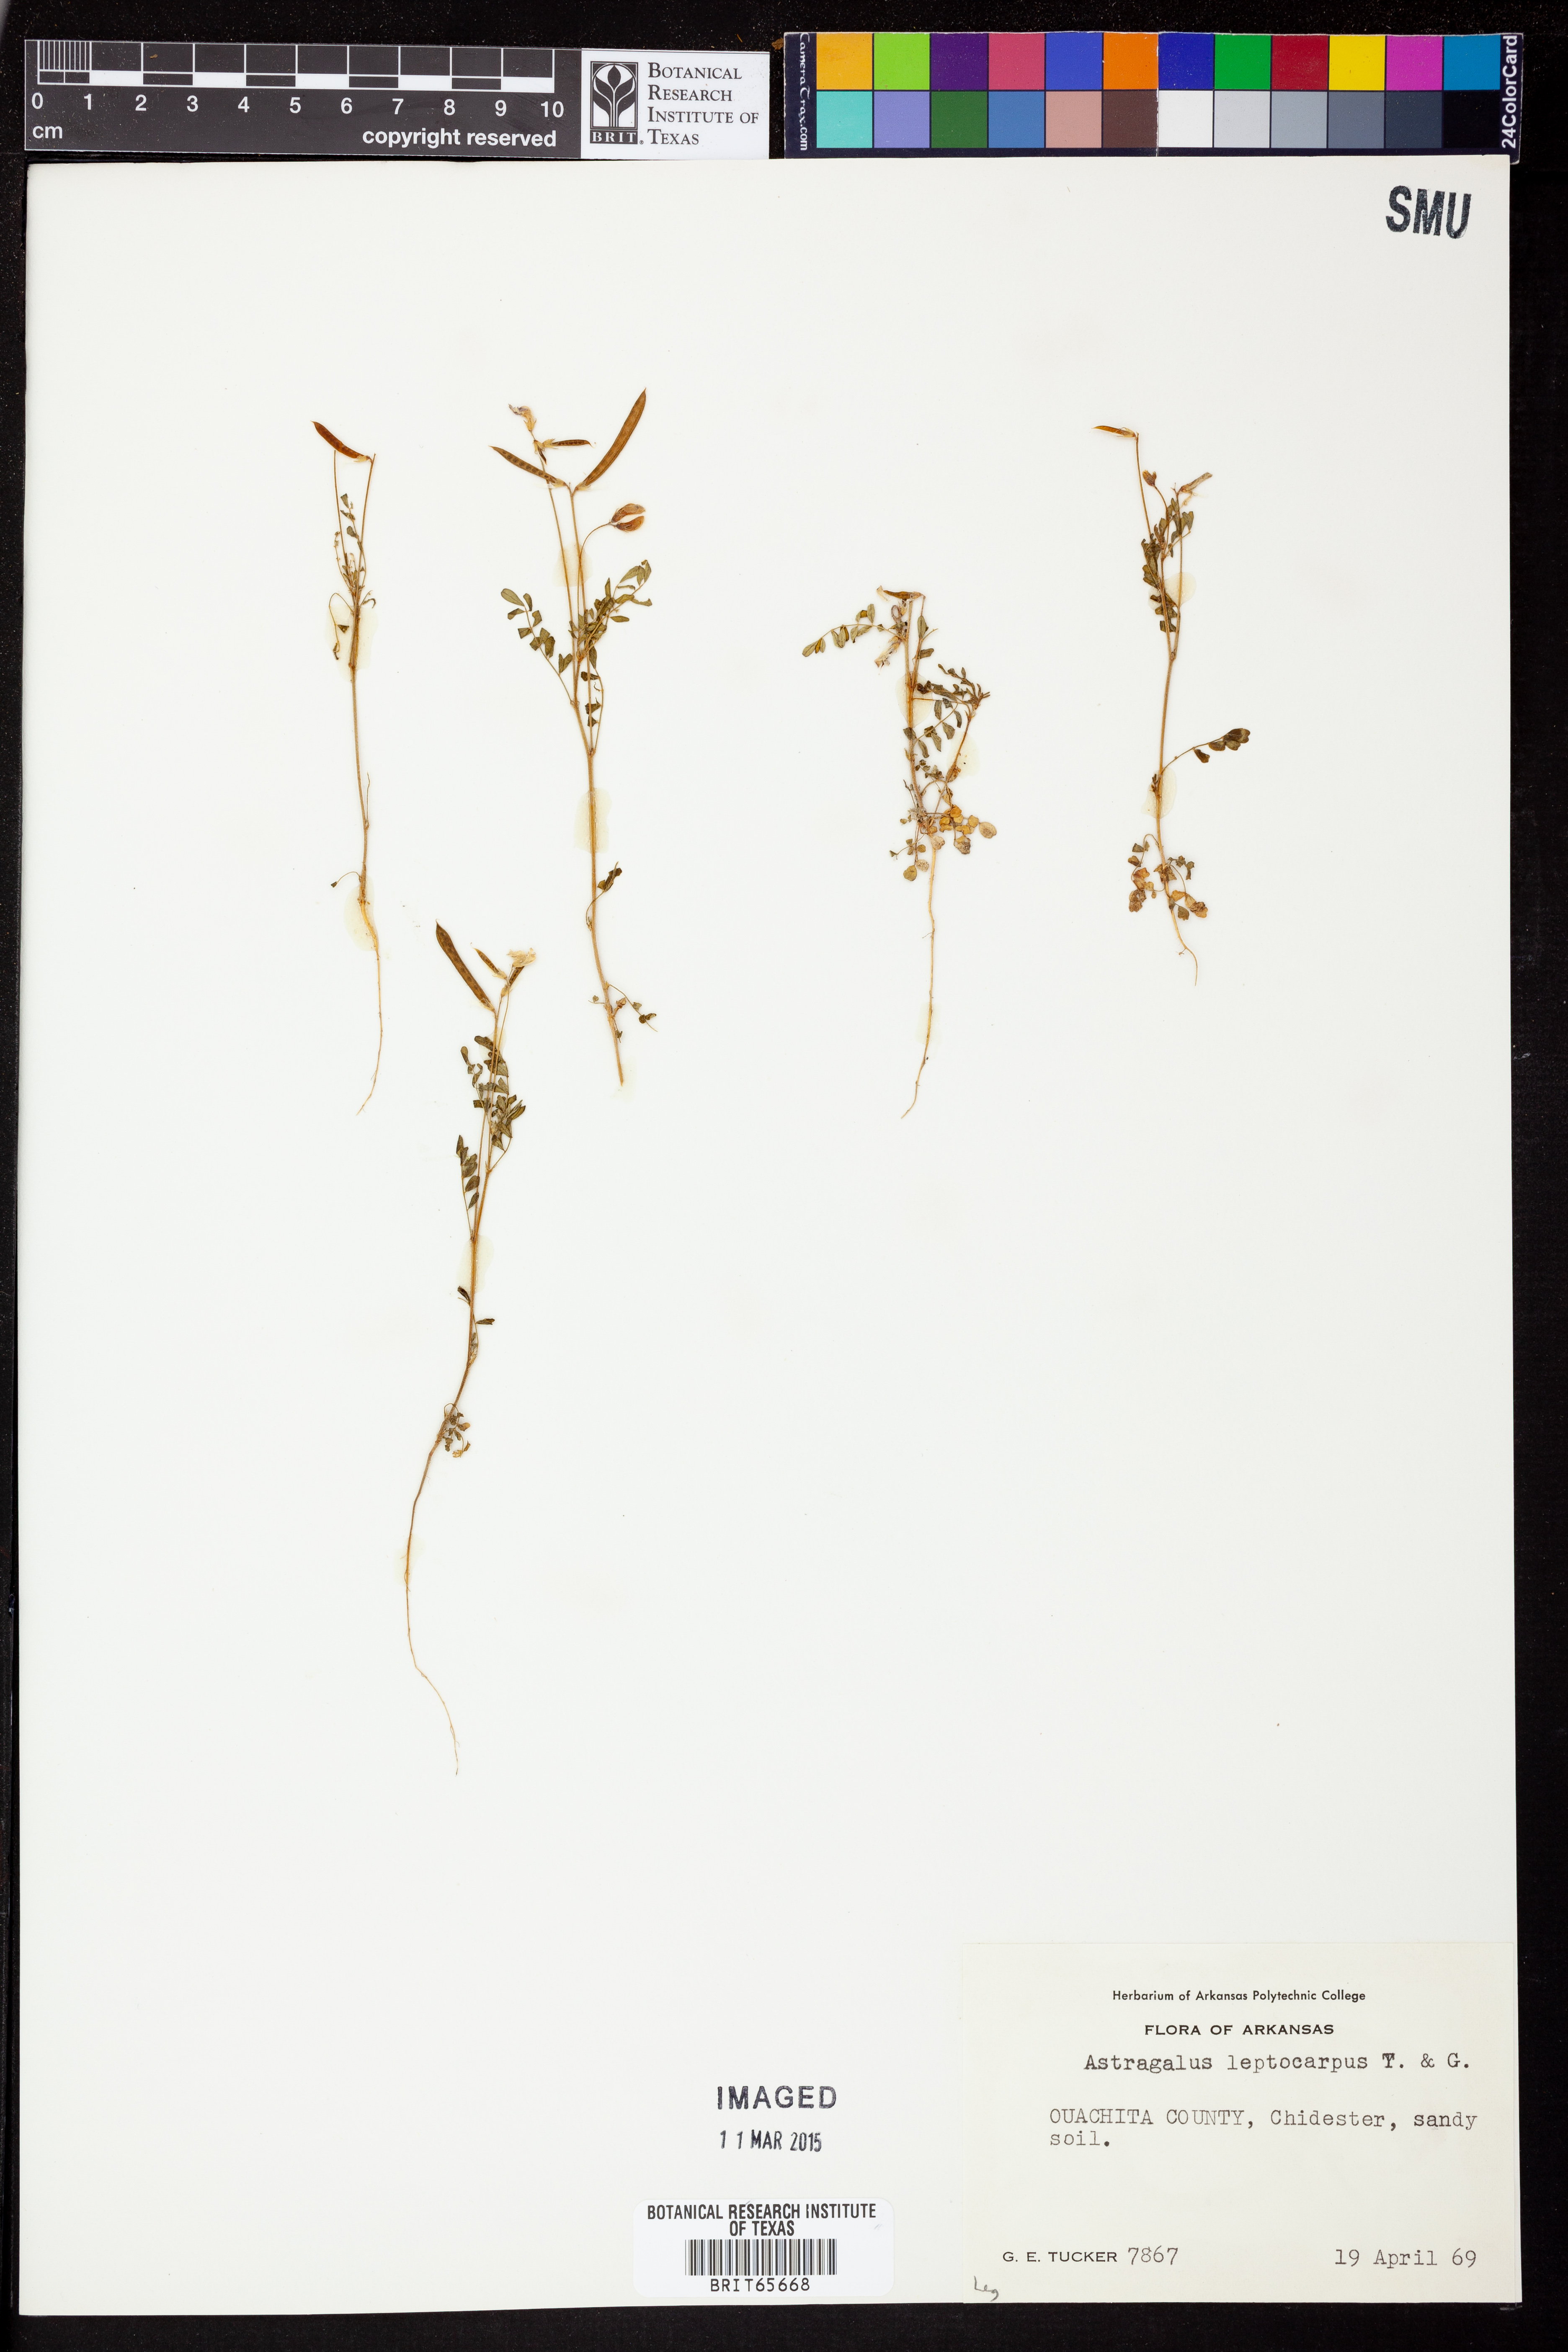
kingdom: Plantae
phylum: Tracheophyta
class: Magnoliopsida
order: Fabales
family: Fabaceae
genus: Astragalus
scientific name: Astragalus leptocarpus
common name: Bodkin milk-vetch
